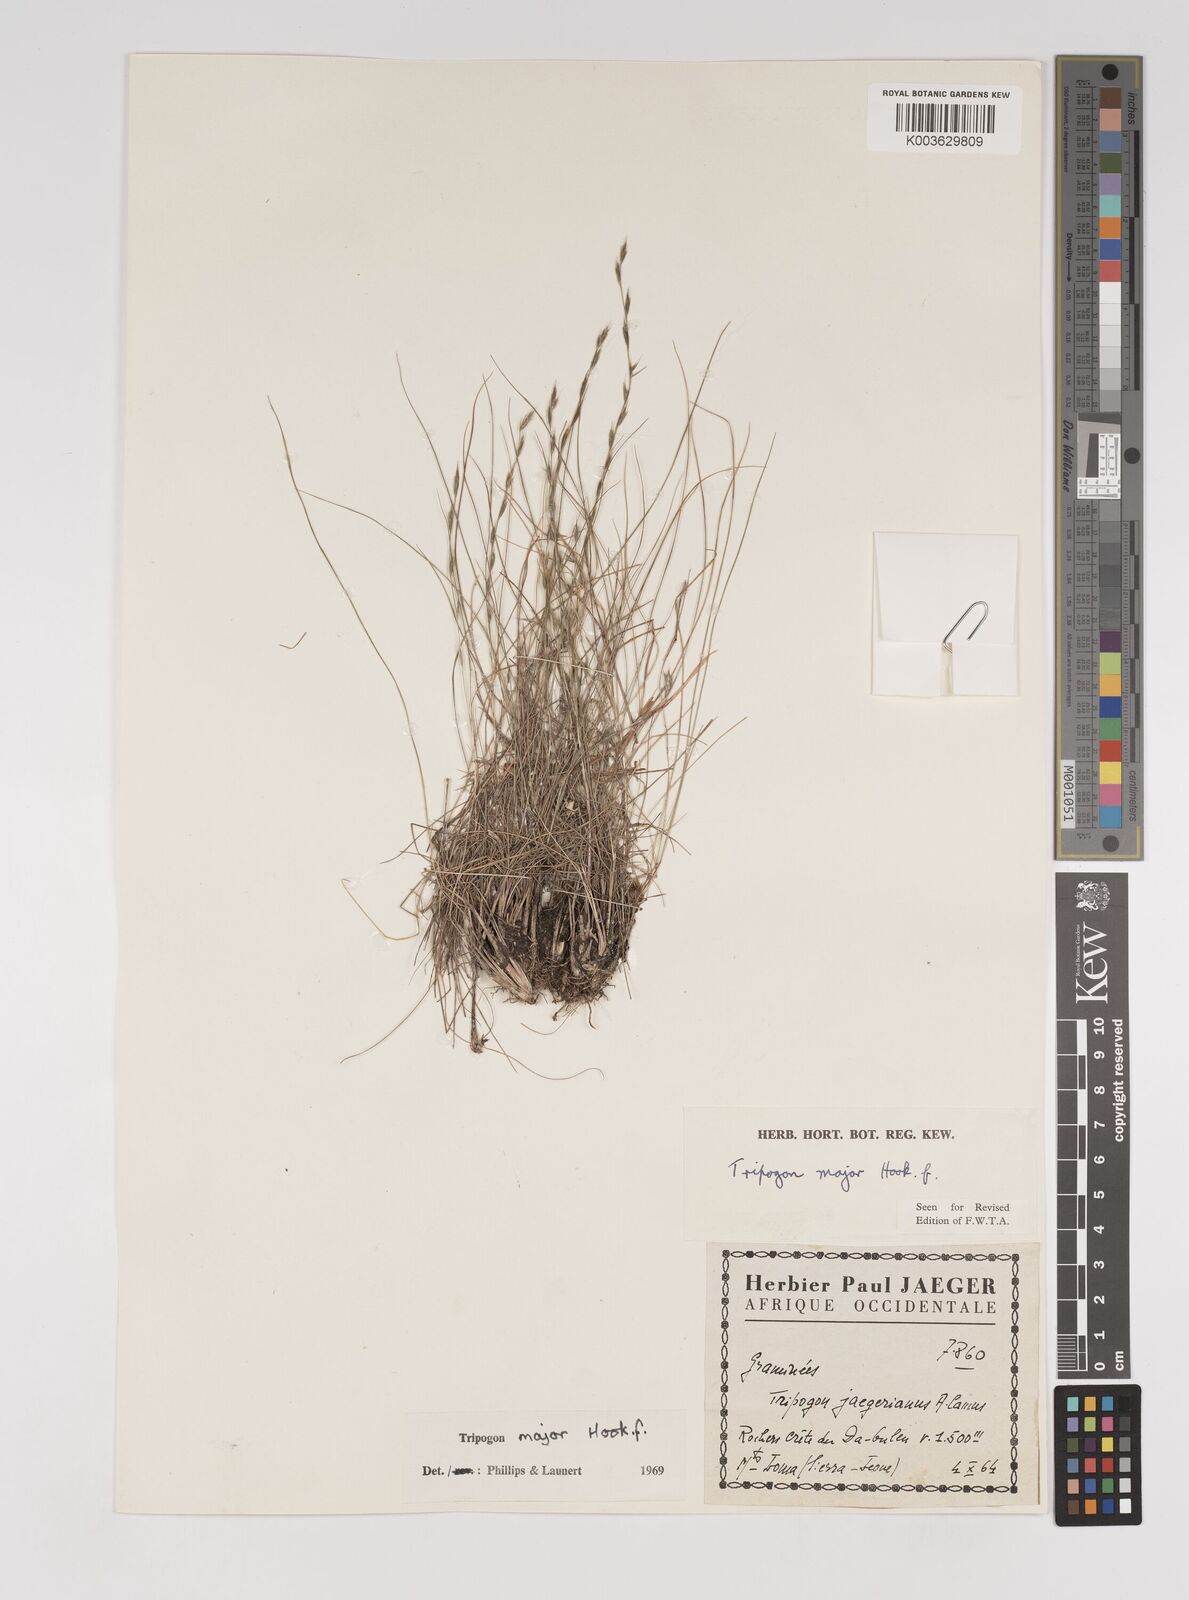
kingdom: Plantae
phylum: Tracheophyta
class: Liliopsida
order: Poales
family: Poaceae
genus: Tripogon
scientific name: Tripogon major
